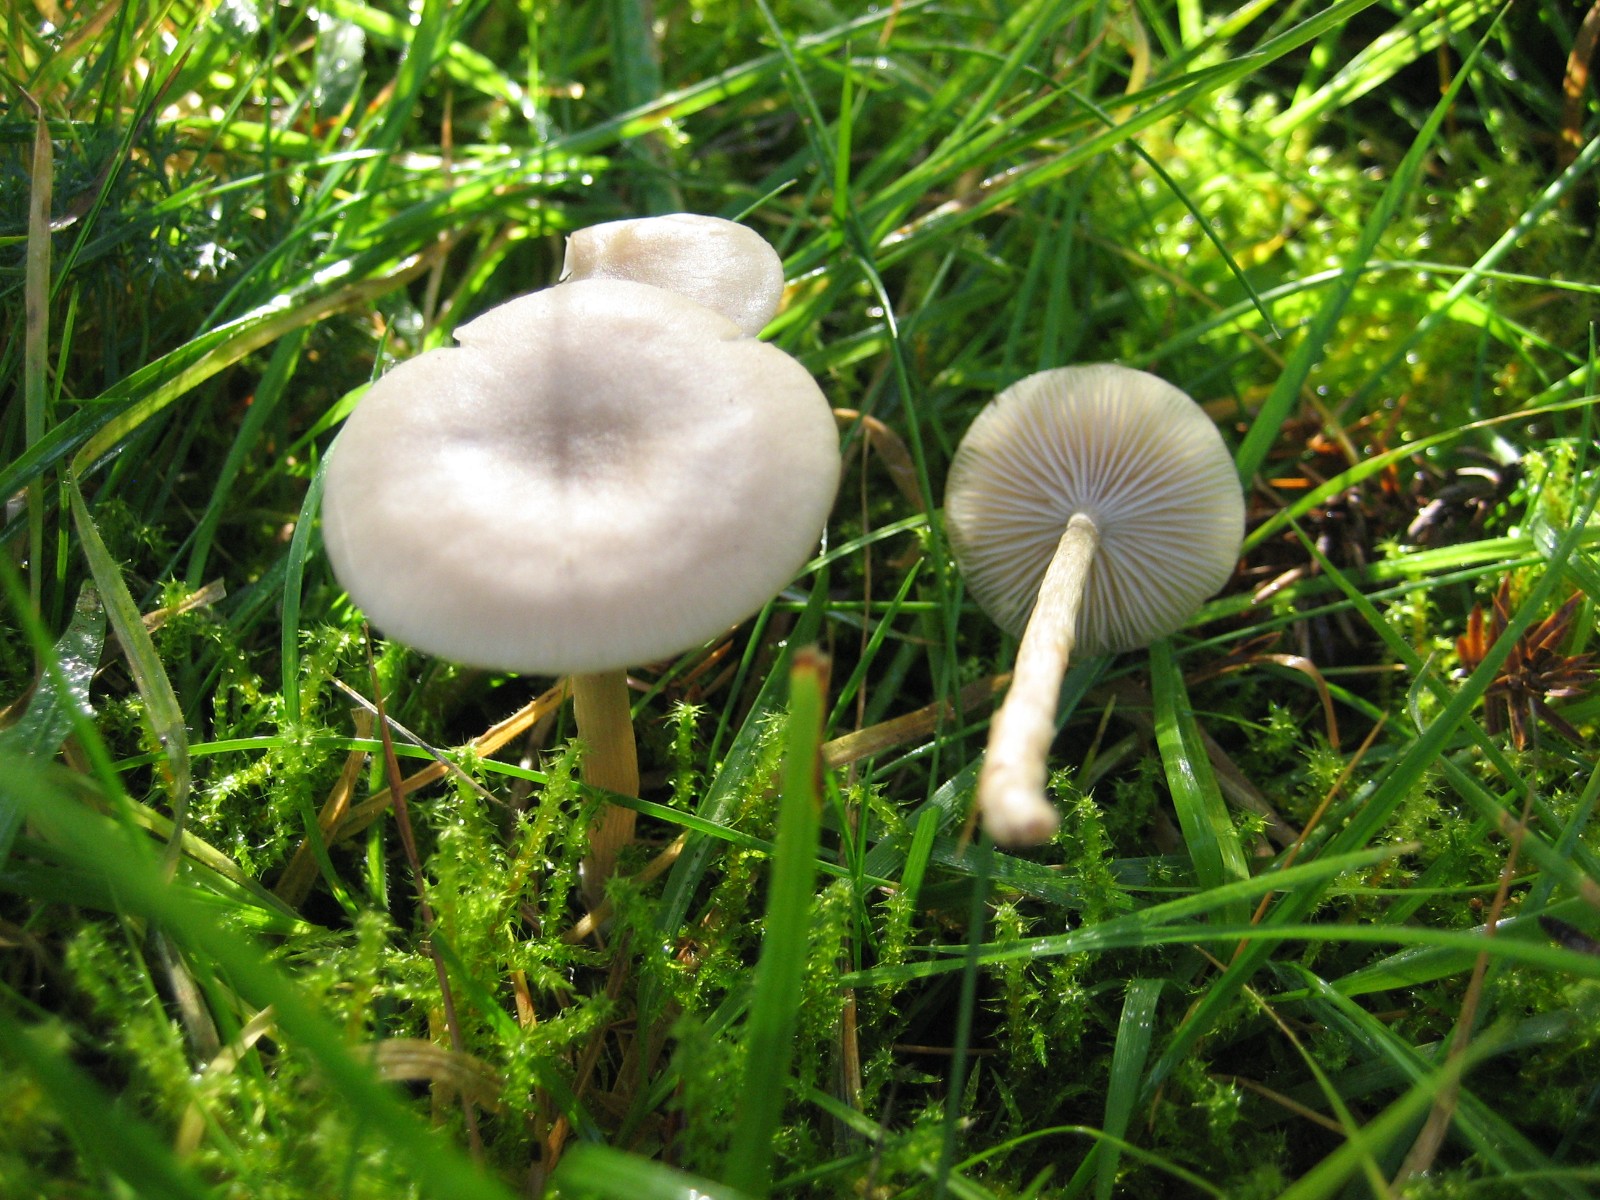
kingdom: Fungi
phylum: Basidiomycota
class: Agaricomycetes
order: Agaricales
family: Tricholomataceae
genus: Clitocybe
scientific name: Clitocybe fragrans
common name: vellugtende tragthat
